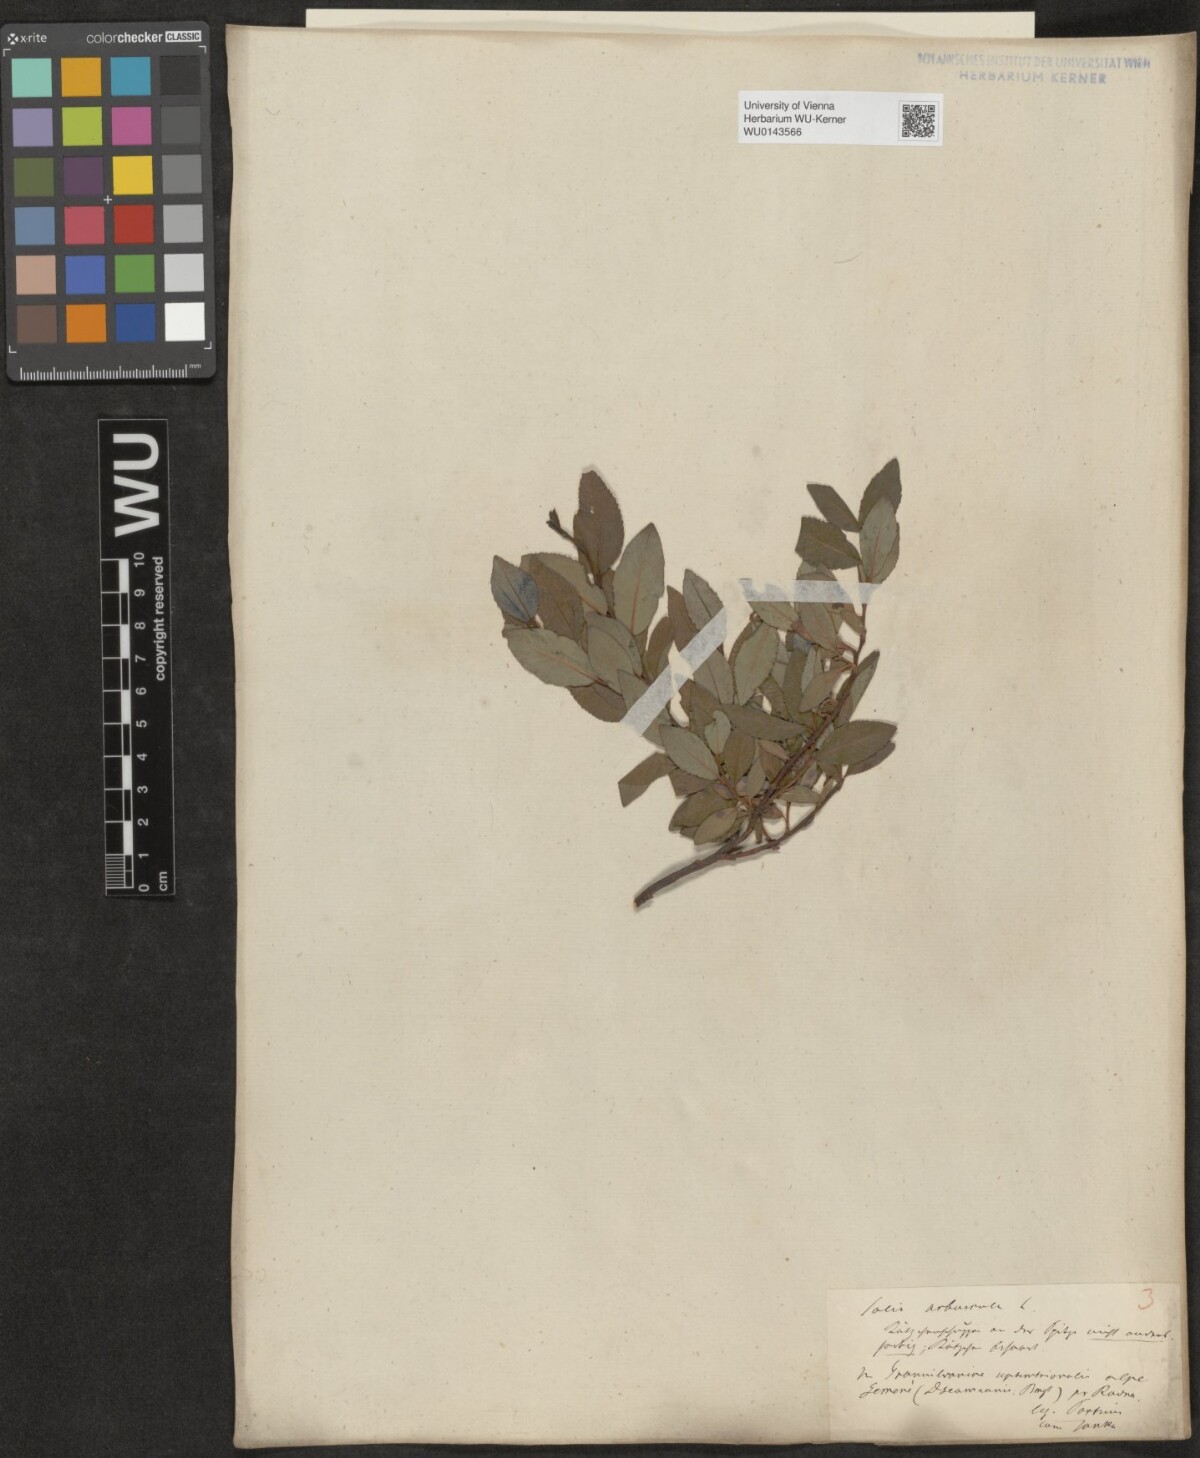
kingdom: Plantae
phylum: Tracheophyta
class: Magnoliopsida
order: Malpighiales
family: Salicaceae
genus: Salix
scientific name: Salix waldsteiniana
